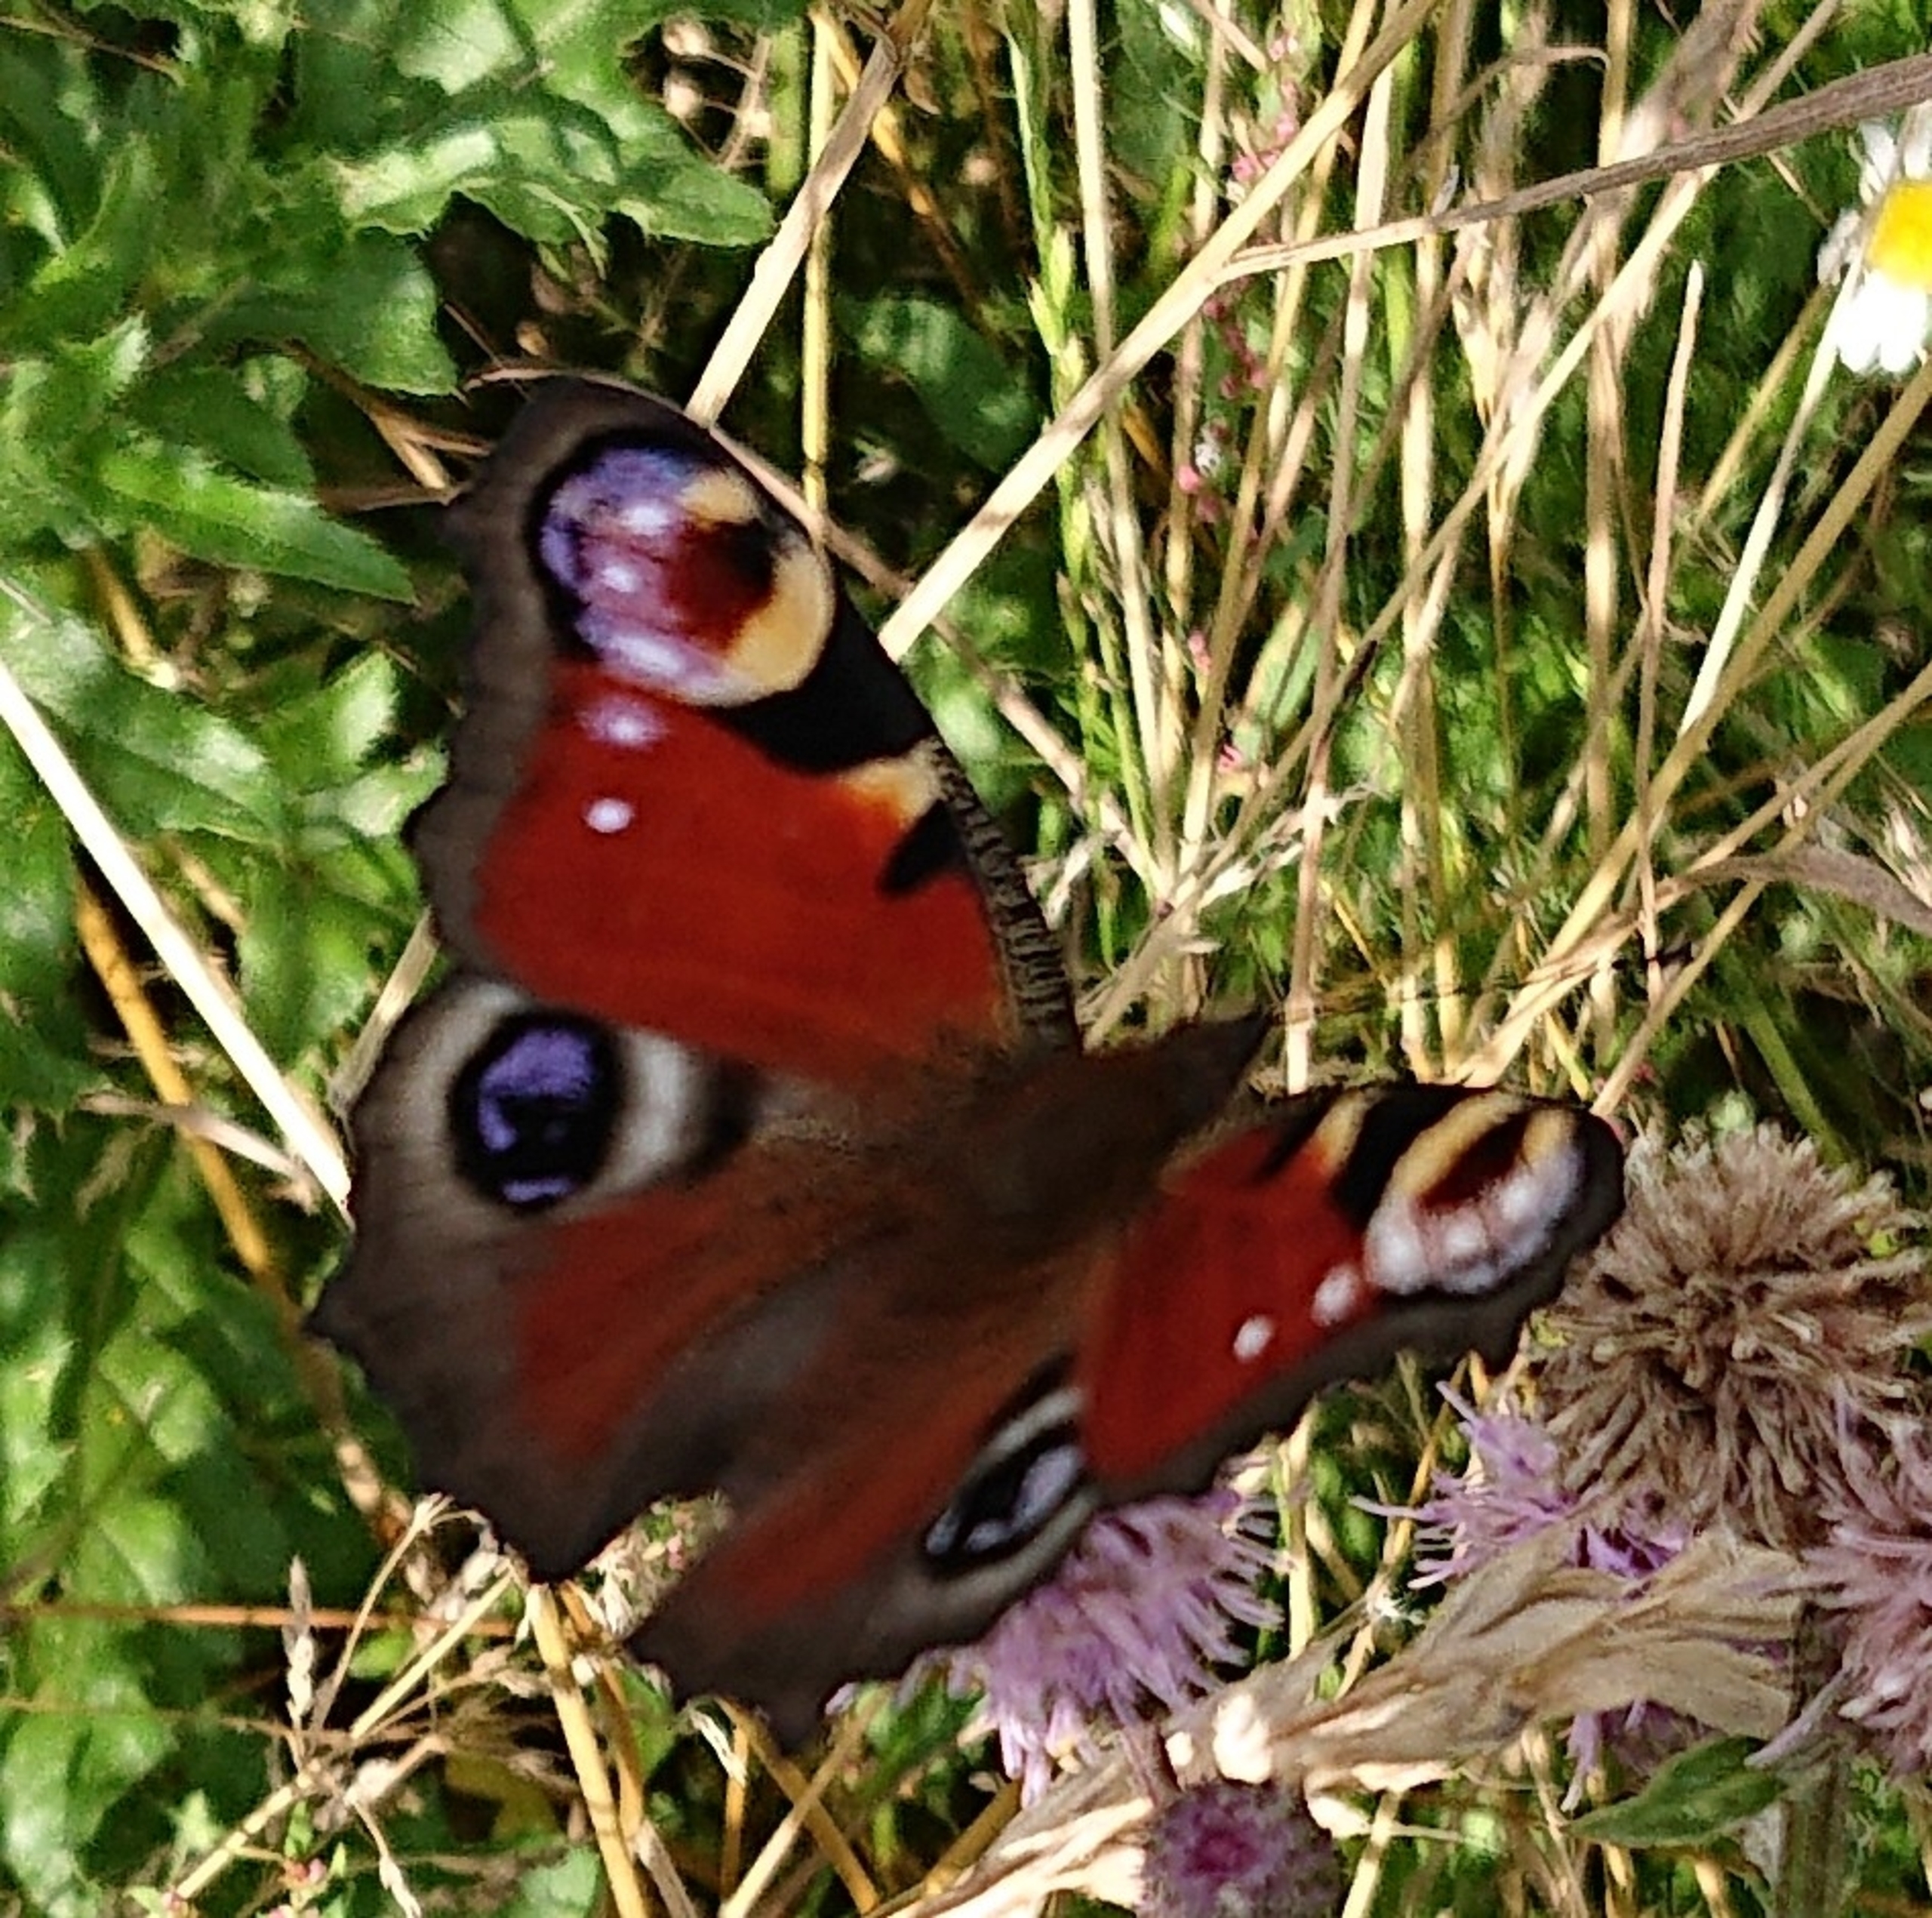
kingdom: Animalia
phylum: Arthropoda
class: Insecta
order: Lepidoptera
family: Nymphalidae
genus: Aglais
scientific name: Aglais io
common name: Dagpåfugleøje
